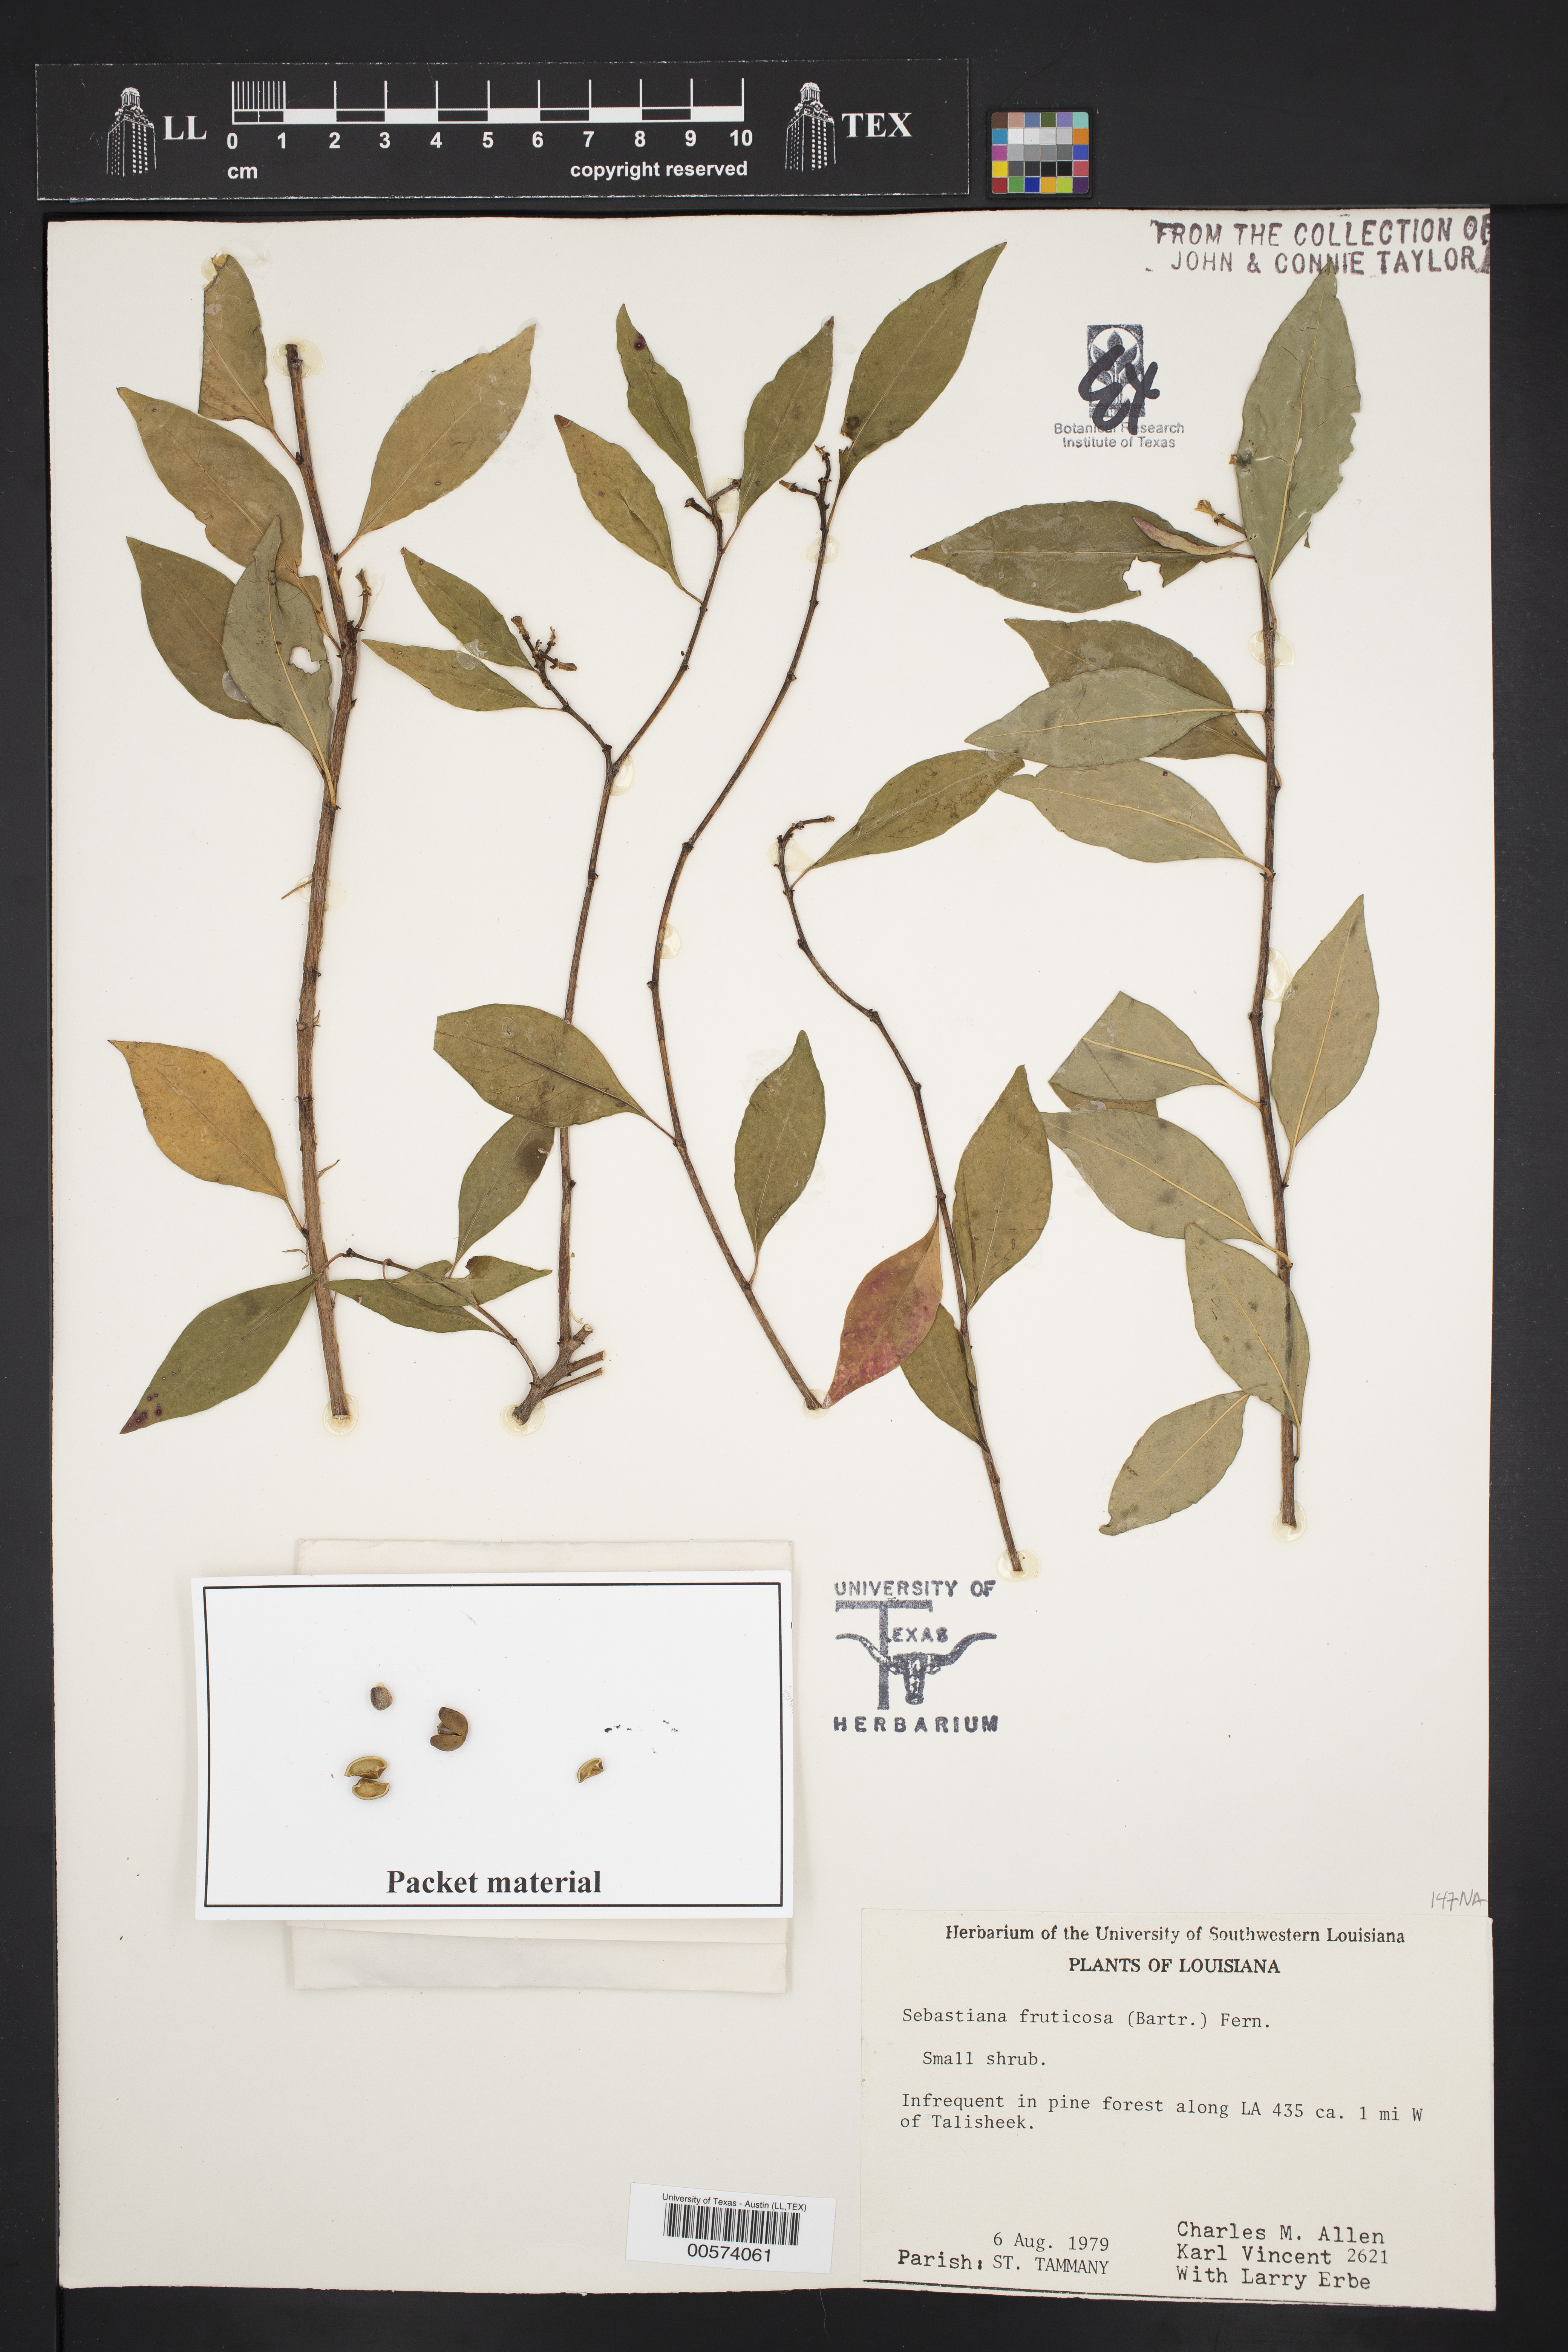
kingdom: Plantae
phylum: Tracheophyta
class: Magnoliopsida
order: Malpighiales
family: Euphorbiaceae
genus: Ditrysinia
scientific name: Ditrysinia fruticosa
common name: Gulf sebastian-bush
